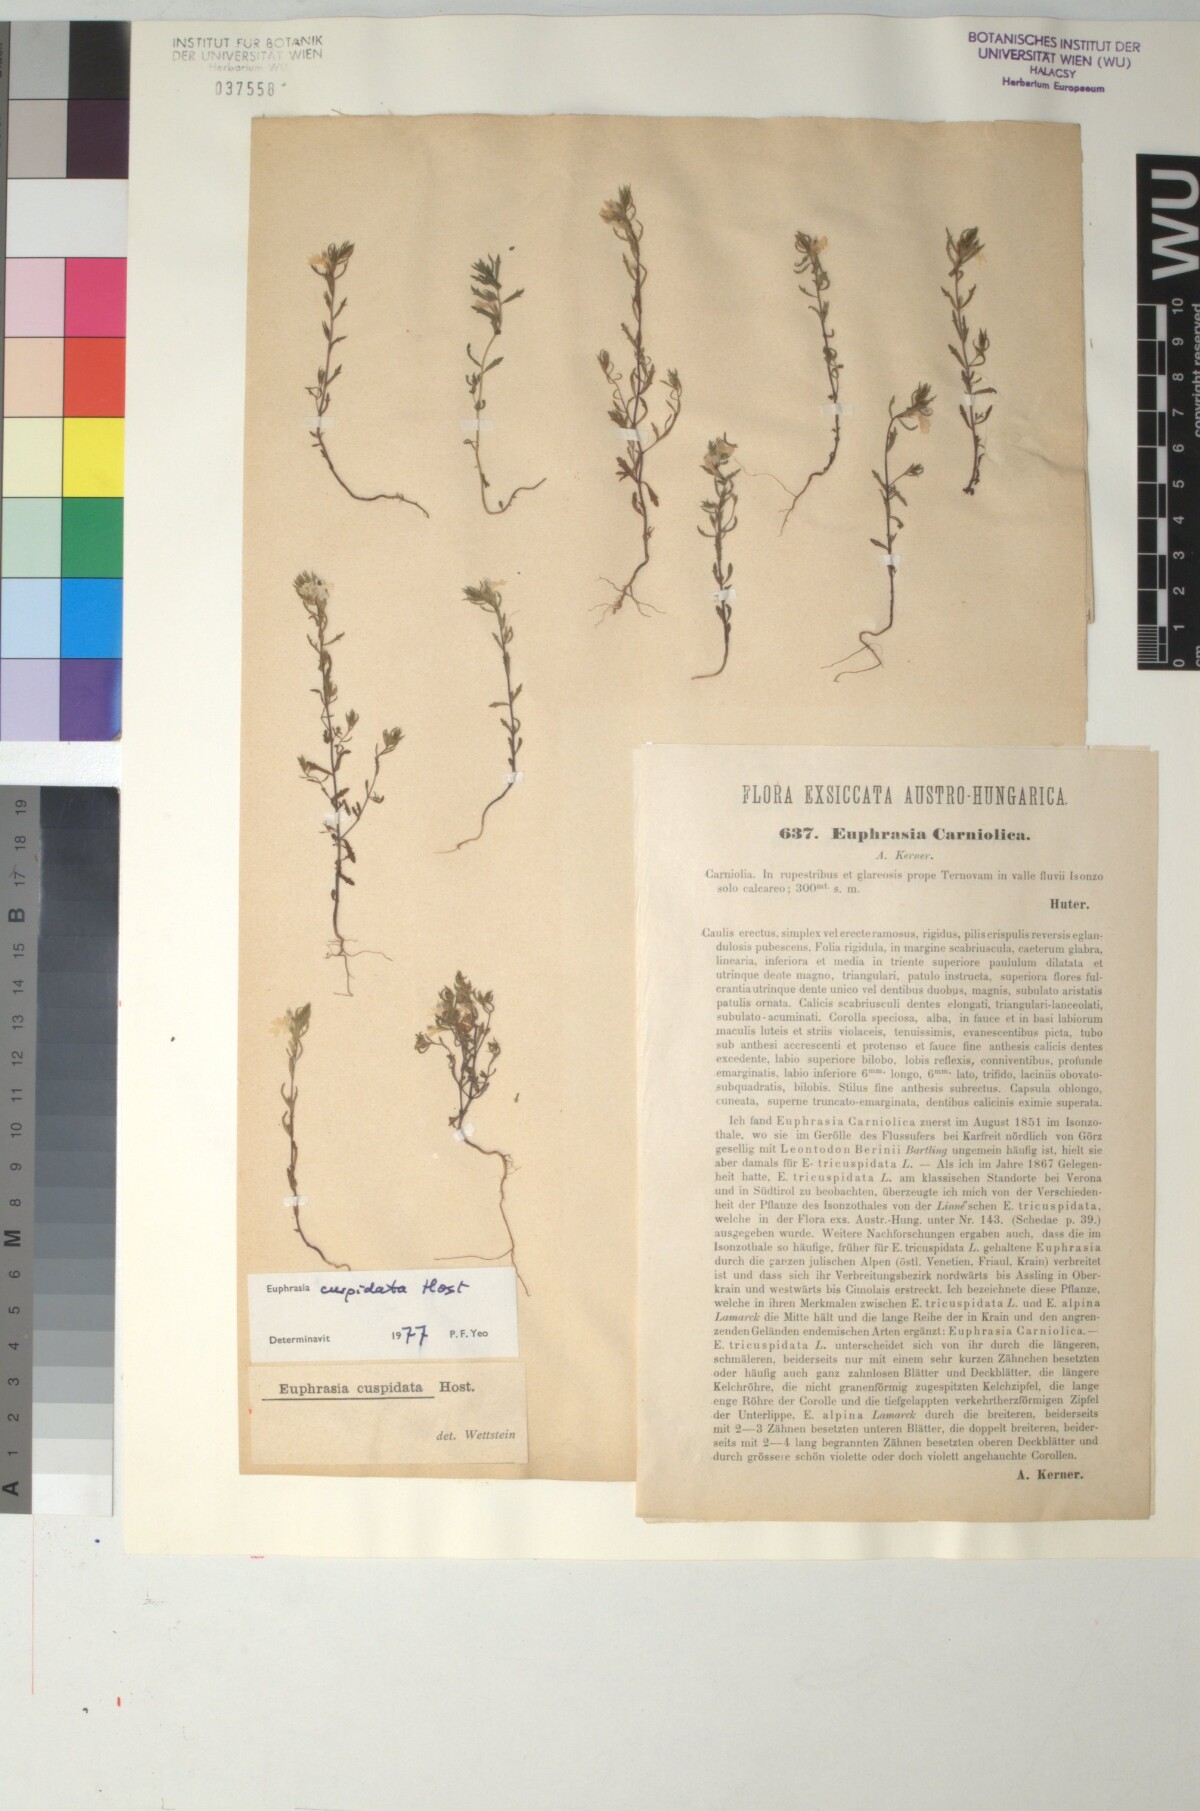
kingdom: Plantae
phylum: Tracheophyta
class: Magnoliopsida
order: Lamiales
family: Orobanchaceae
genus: Euphrasia
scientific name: Euphrasia officinalis
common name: Eyebright
